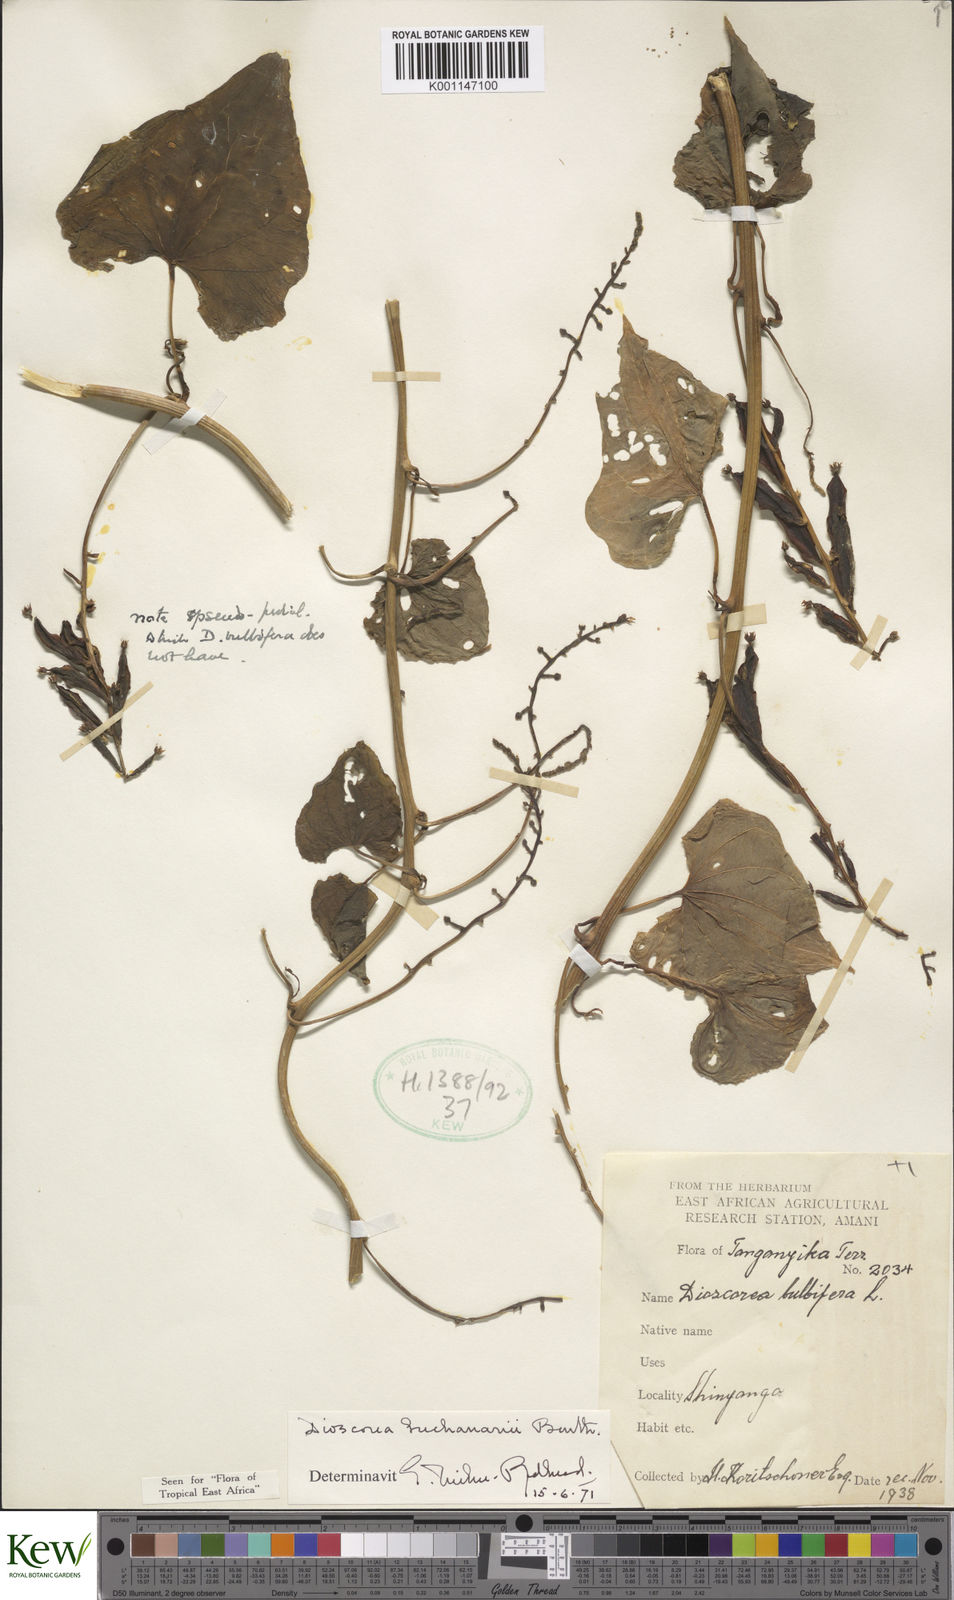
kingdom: Plantae
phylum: Tracheophyta
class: Liliopsida
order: Dioscoreales
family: Dioscoreaceae
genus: Dioscorea
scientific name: Dioscorea buchananii
